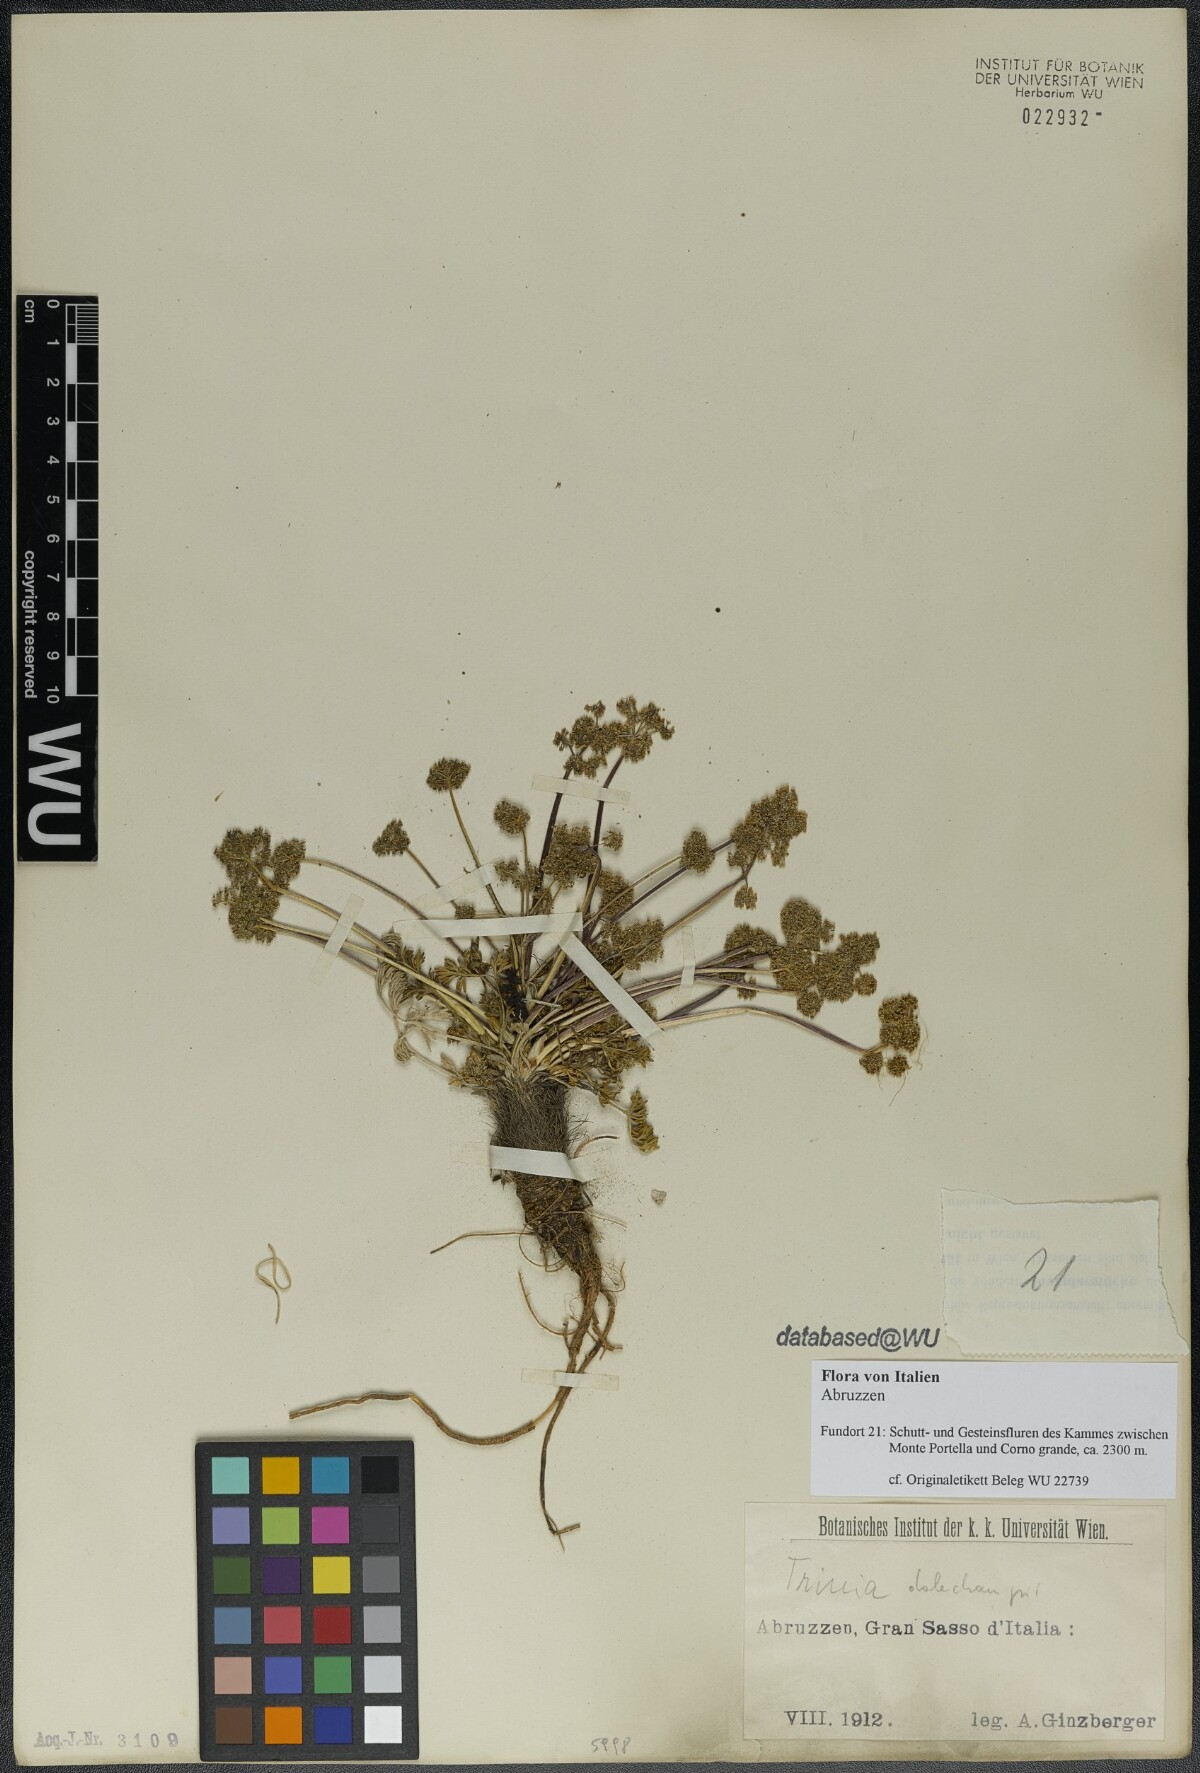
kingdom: Plantae
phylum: Tracheophyta
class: Magnoliopsida
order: Apiales
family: Apiaceae
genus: Trinia
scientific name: Trinia dalechampii
